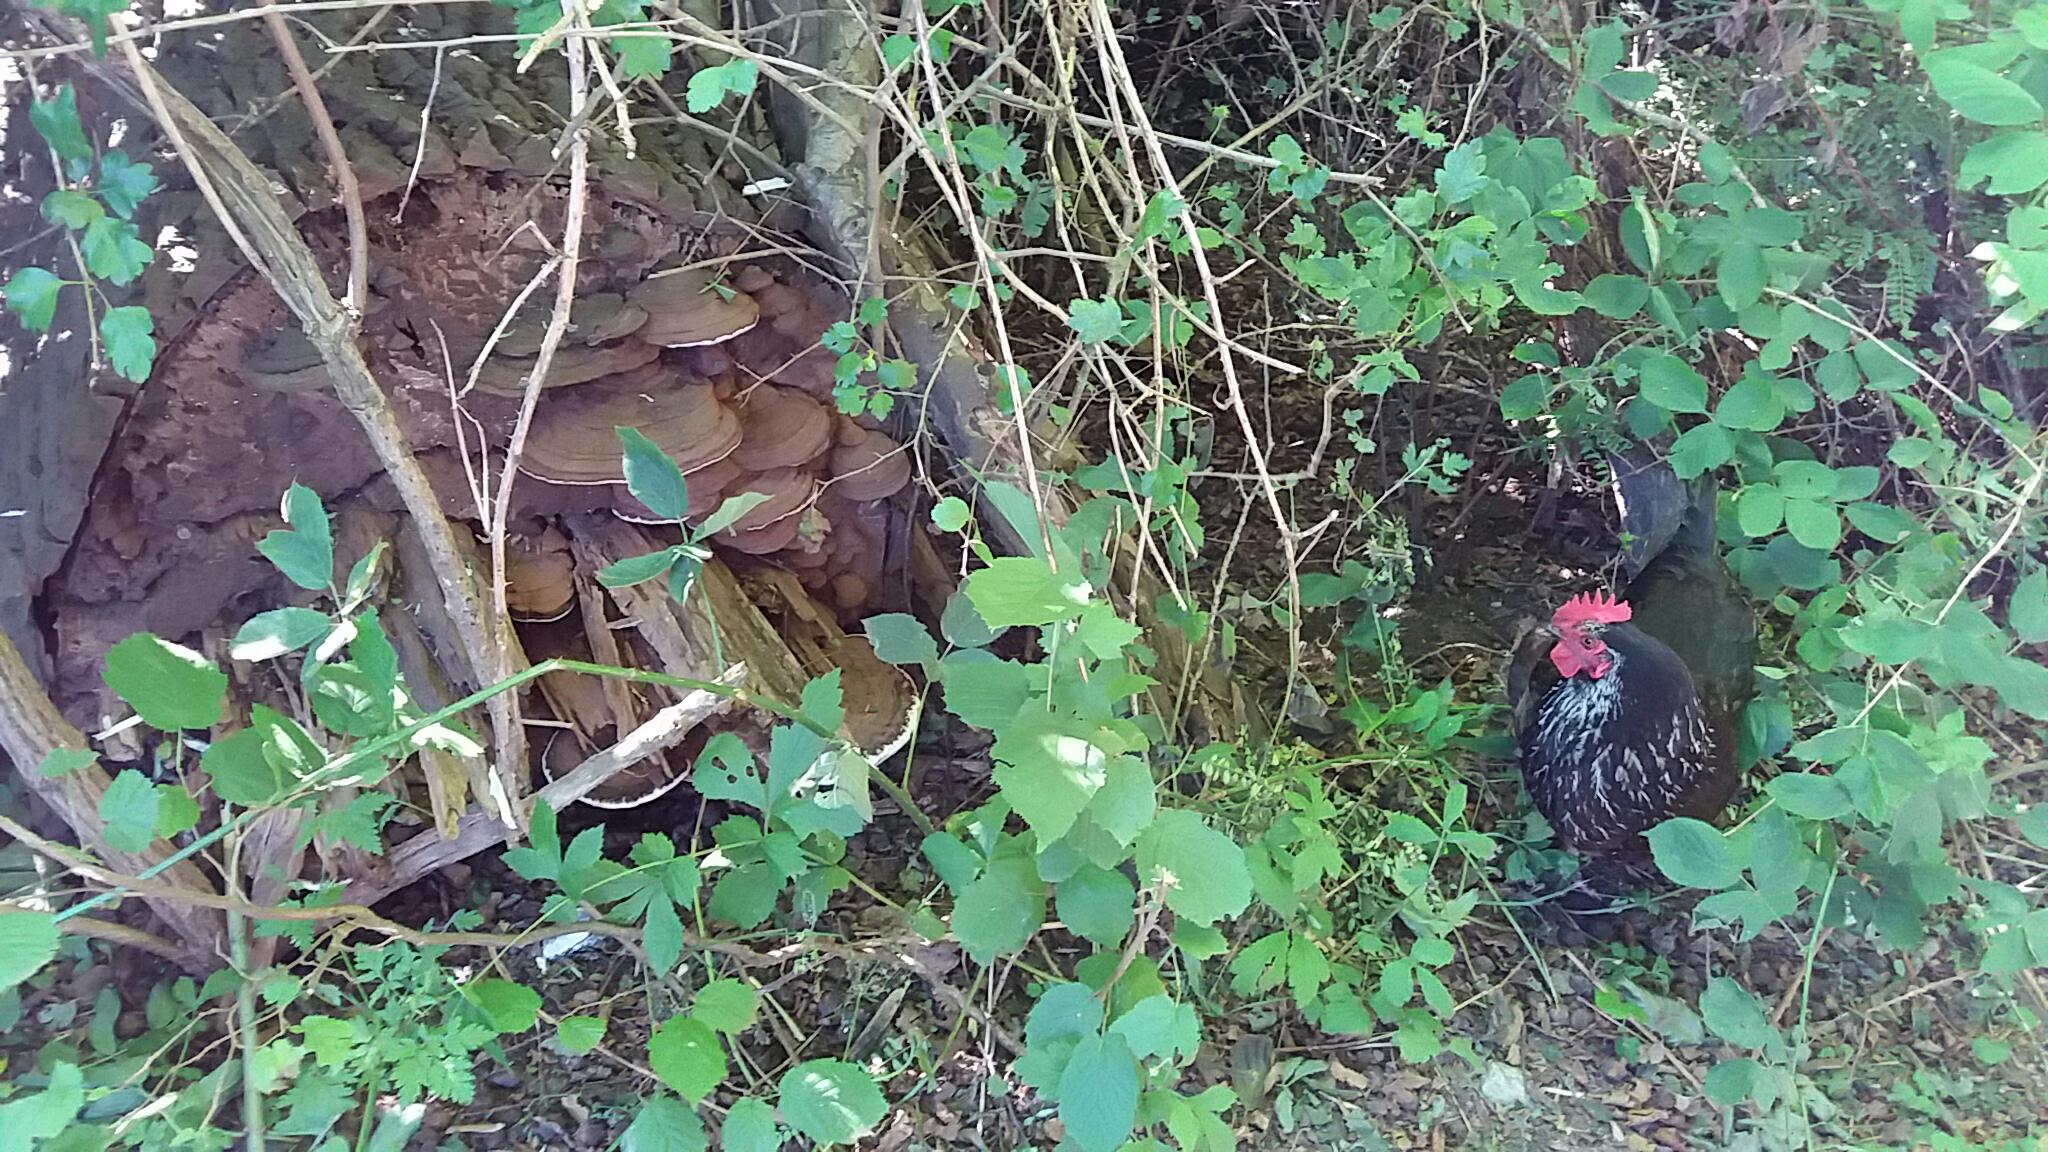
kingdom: Fungi
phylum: Basidiomycota
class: Agaricomycetes
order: Polyporales
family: Polyporaceae
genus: Ganoderma
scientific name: Ganoderma applanatum
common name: flad lakporesvamp
